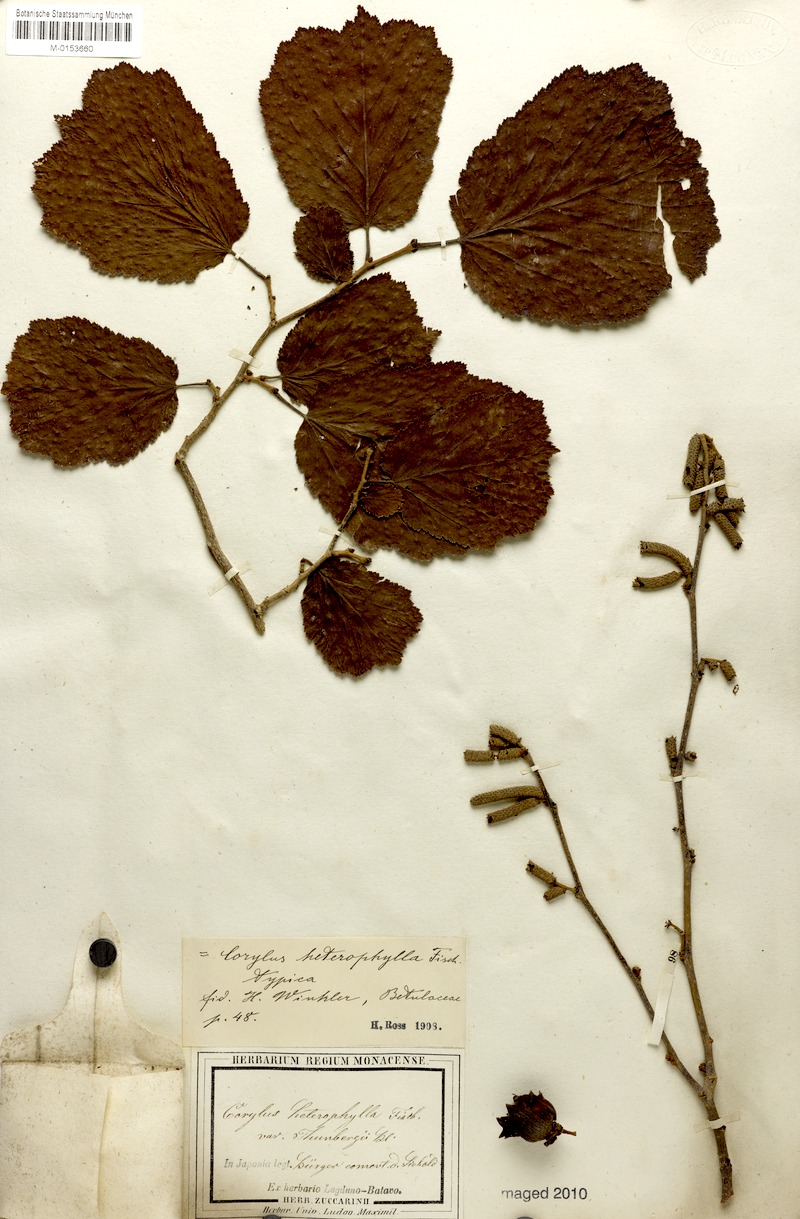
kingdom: Plantae
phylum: Tracheophyta
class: Magnoliopsida
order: Fagales
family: Betulaceae
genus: Corylus
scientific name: Corylus heterophylla
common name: Siberian hazelnut
